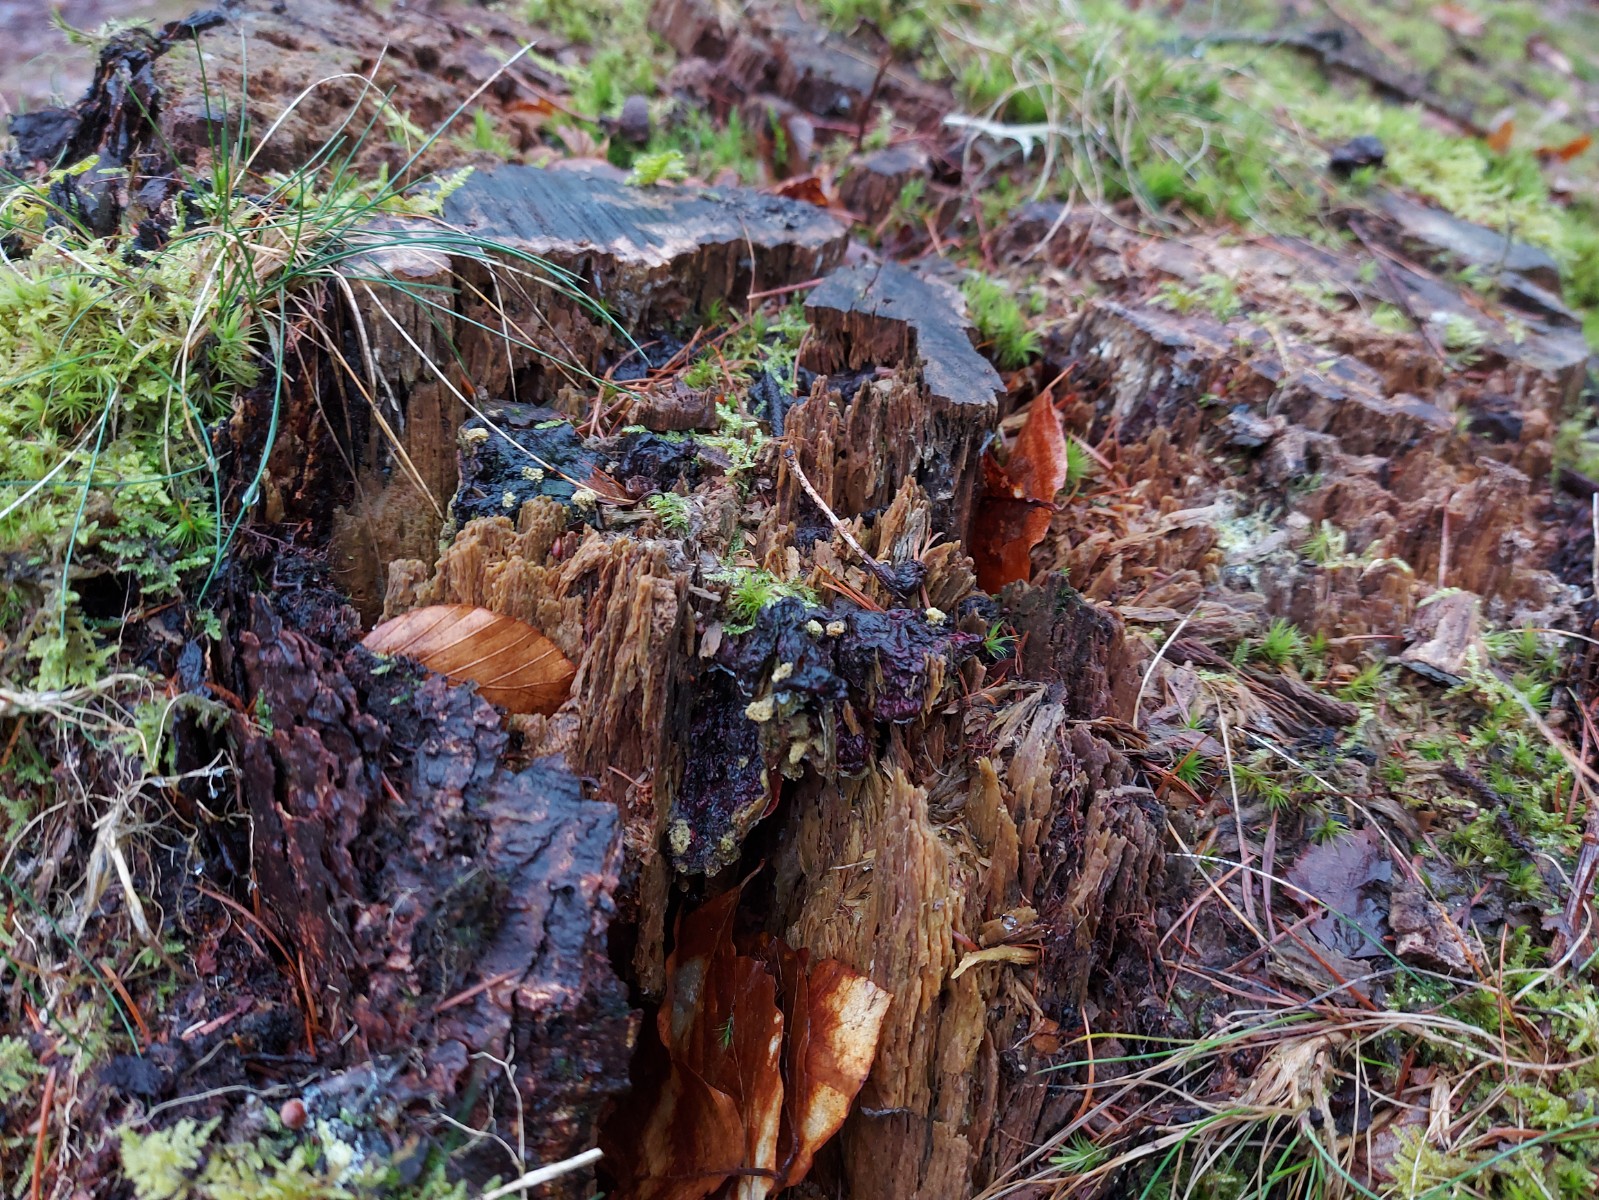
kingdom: Fungi
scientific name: Fungi
